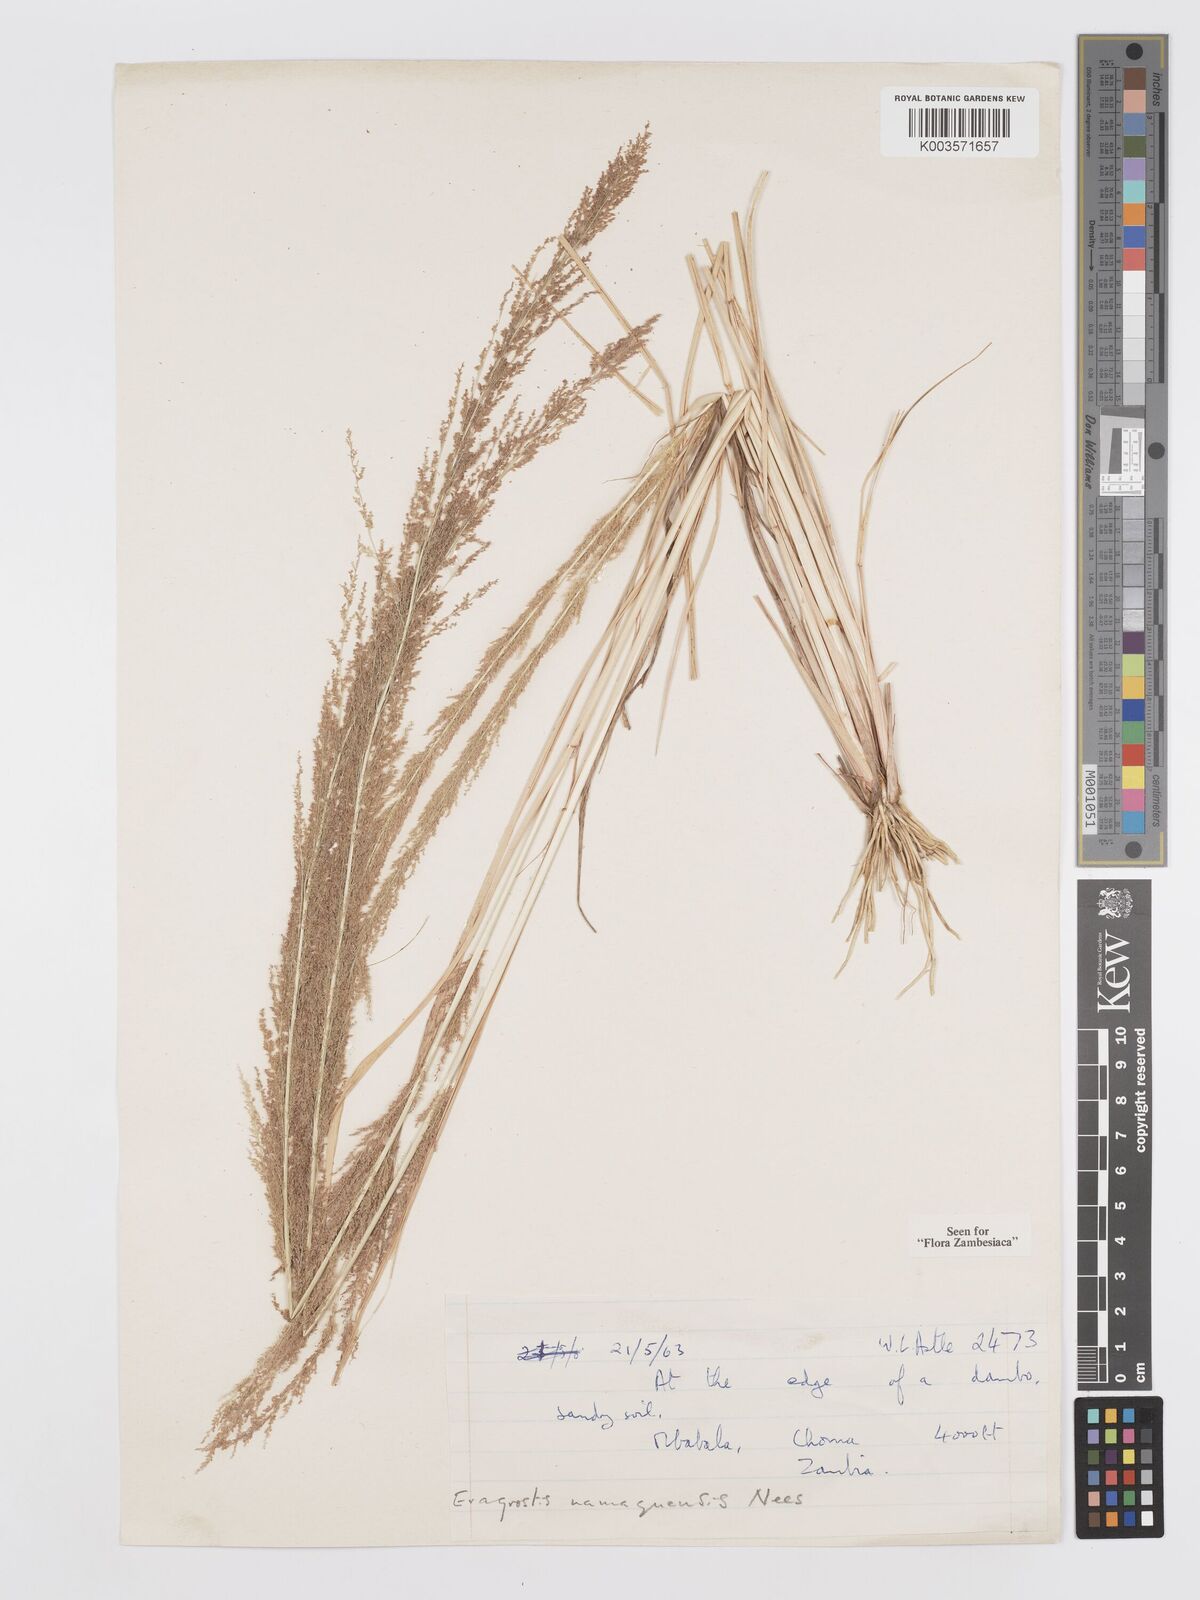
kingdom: Plantae
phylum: Tracheophyta
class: Liliopsida
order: Poales
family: Poaceae
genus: Eragrostis
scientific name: Eragrostis japonica
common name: Pond lovegrass
